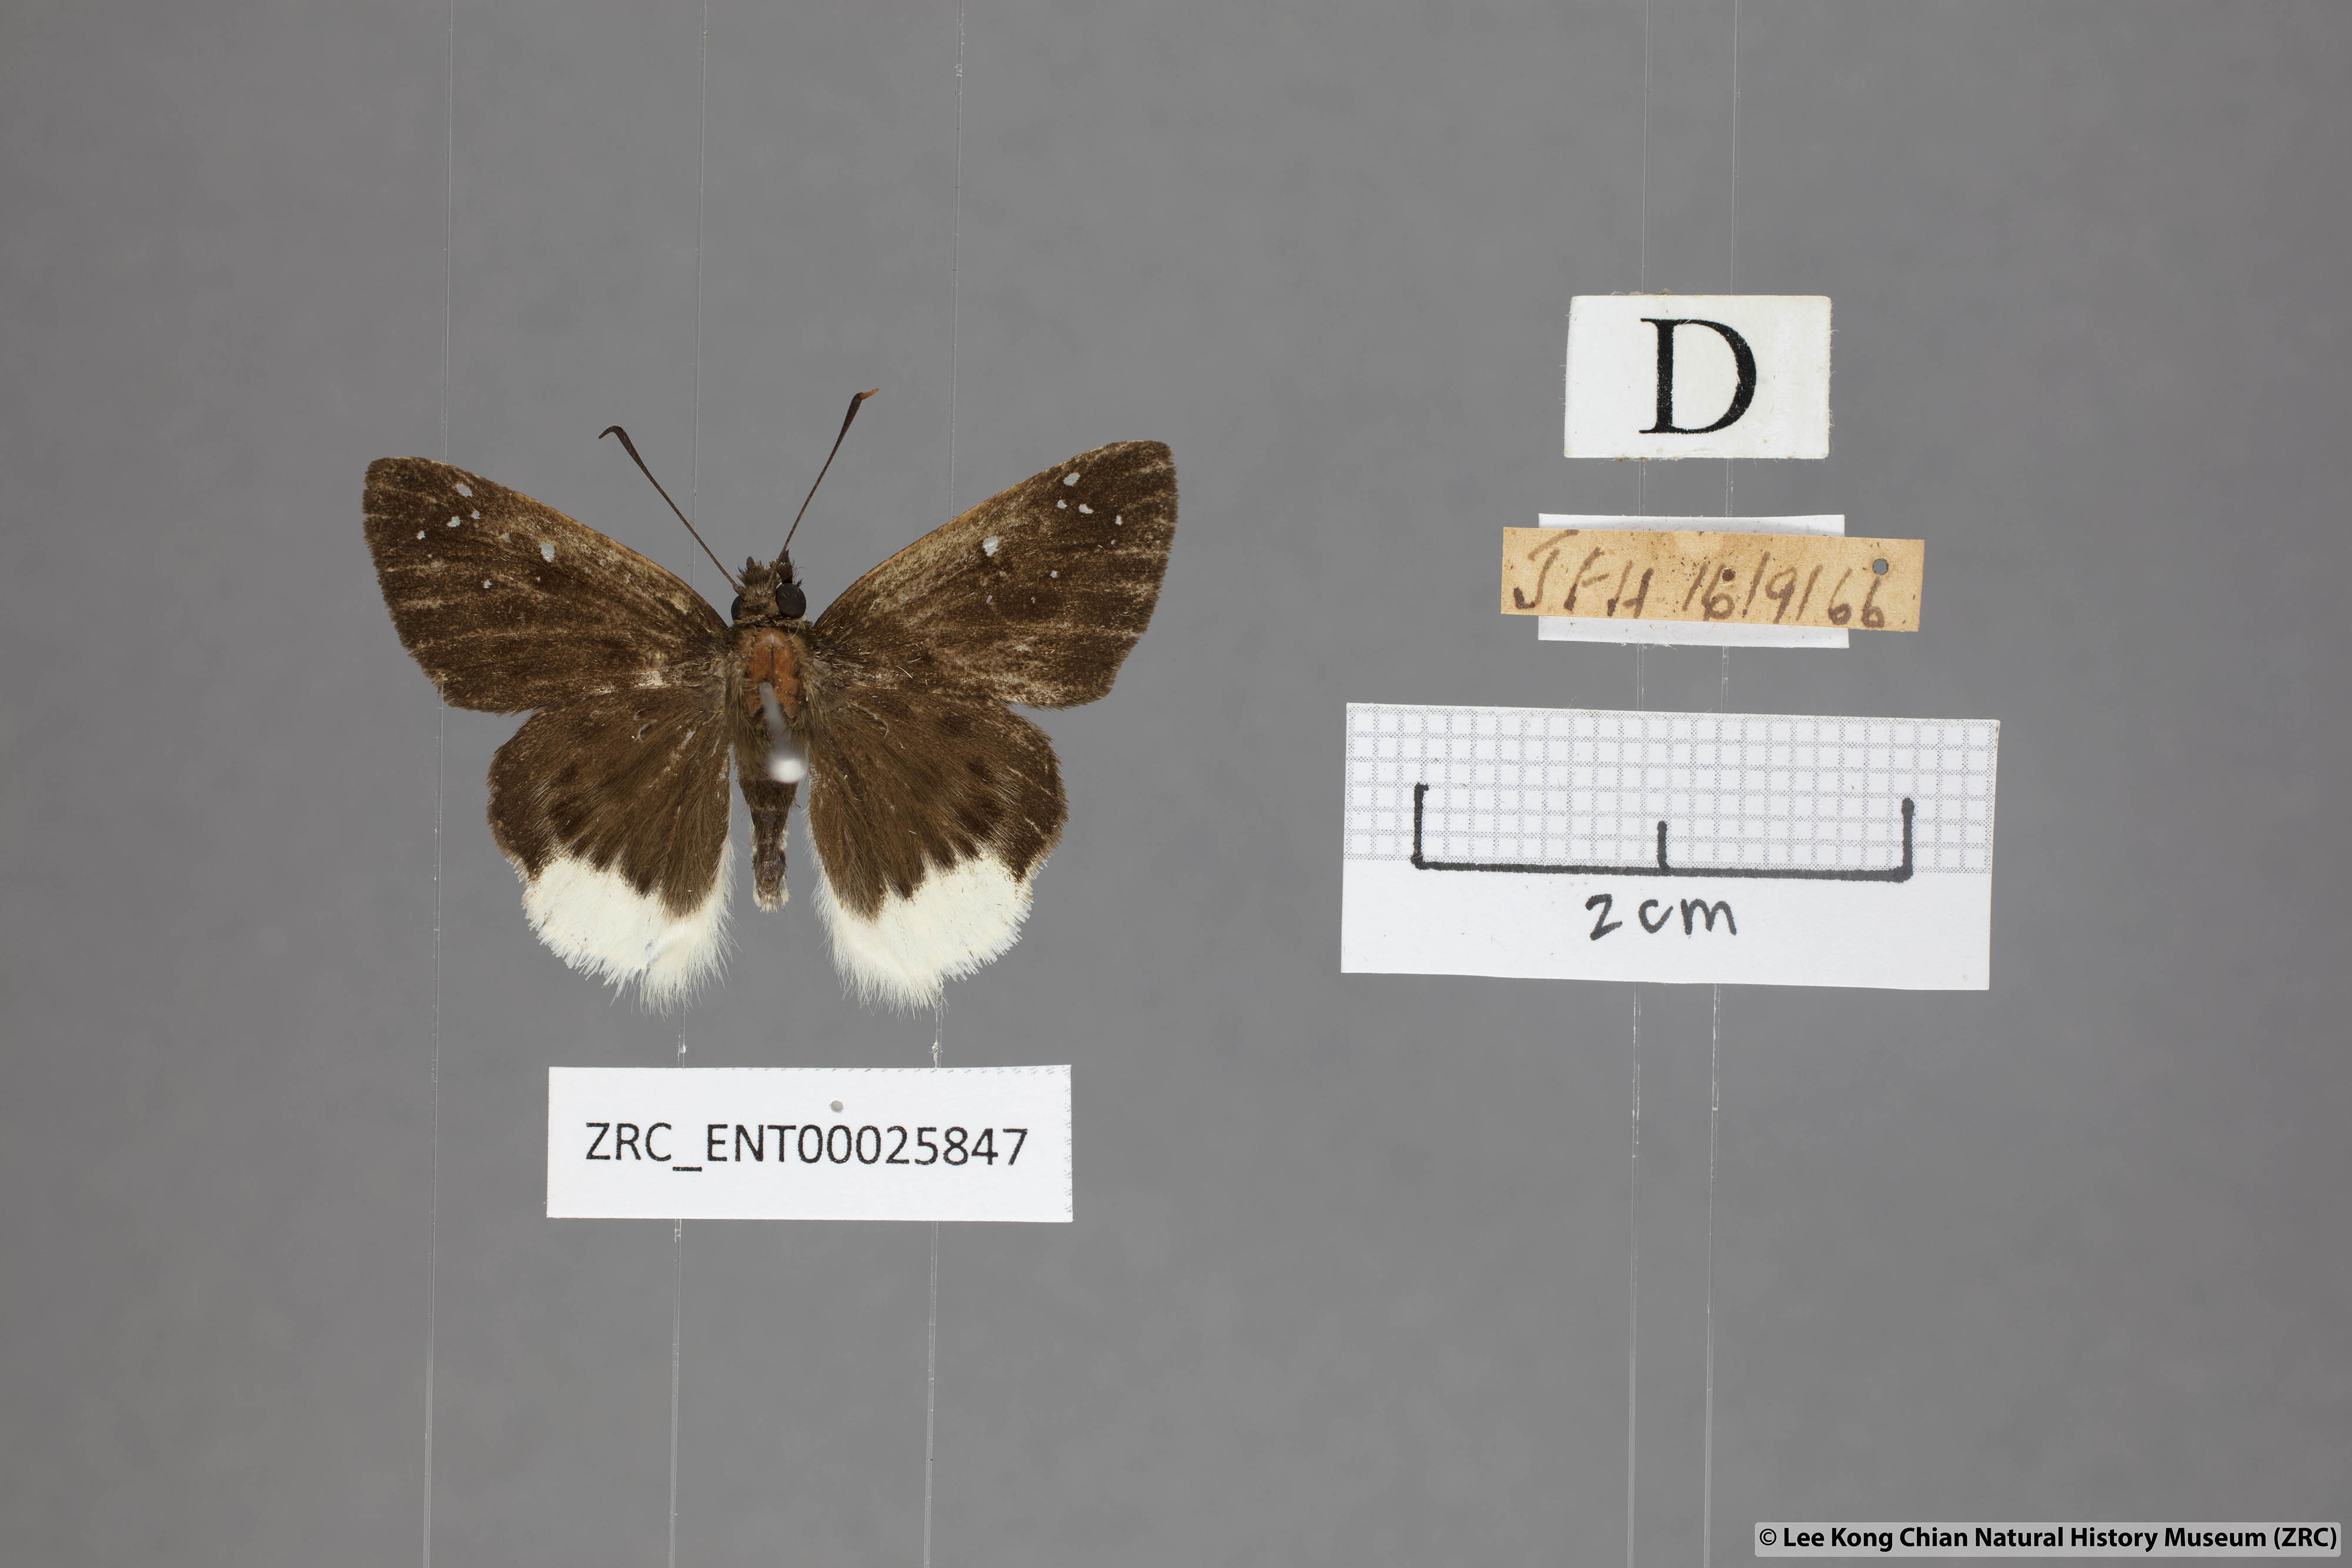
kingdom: Animalia
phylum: Arthropoda
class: Insecta
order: Lepidoptera
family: Hesperiidae
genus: Darpa
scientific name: Darpa pterica
